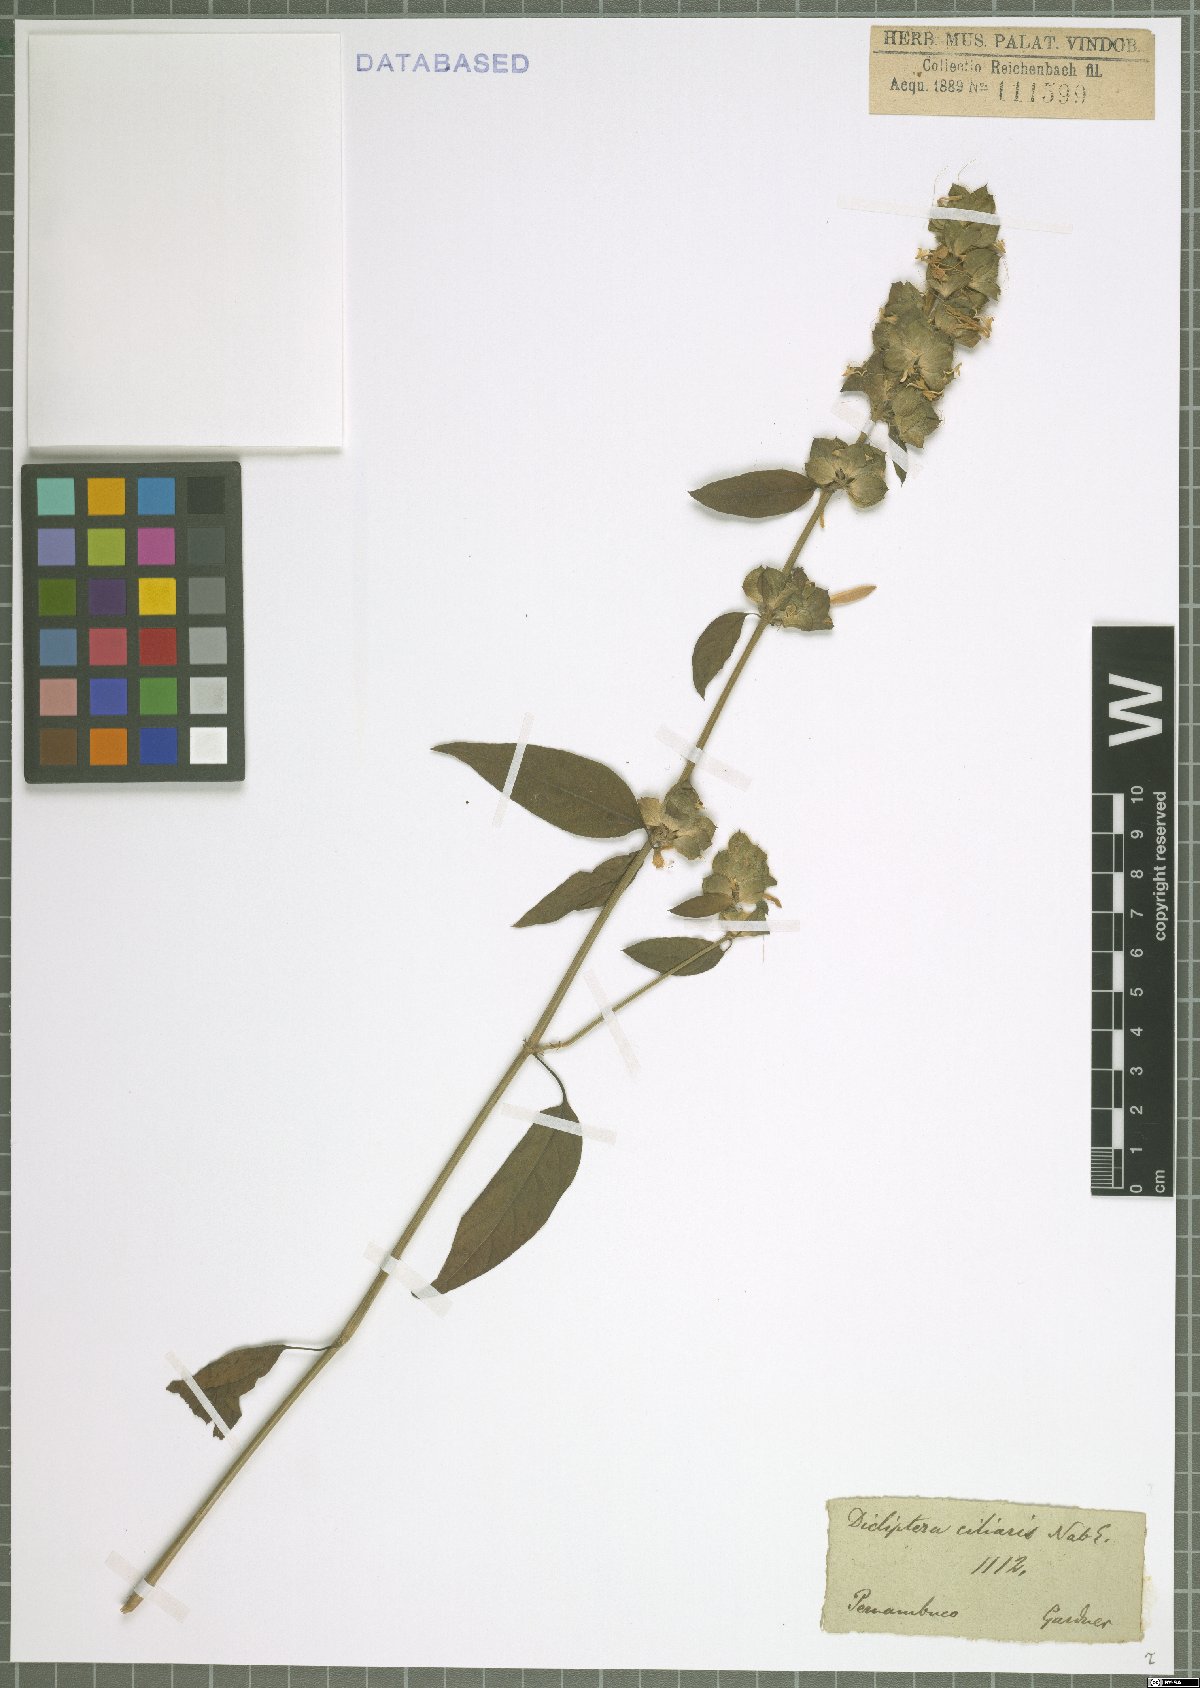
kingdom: Plantae
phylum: Tracheophyta
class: Magnoliopsida
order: Lamiales
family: Acanthaceae
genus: Dicliptera
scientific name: Dicliptera ciliaris
